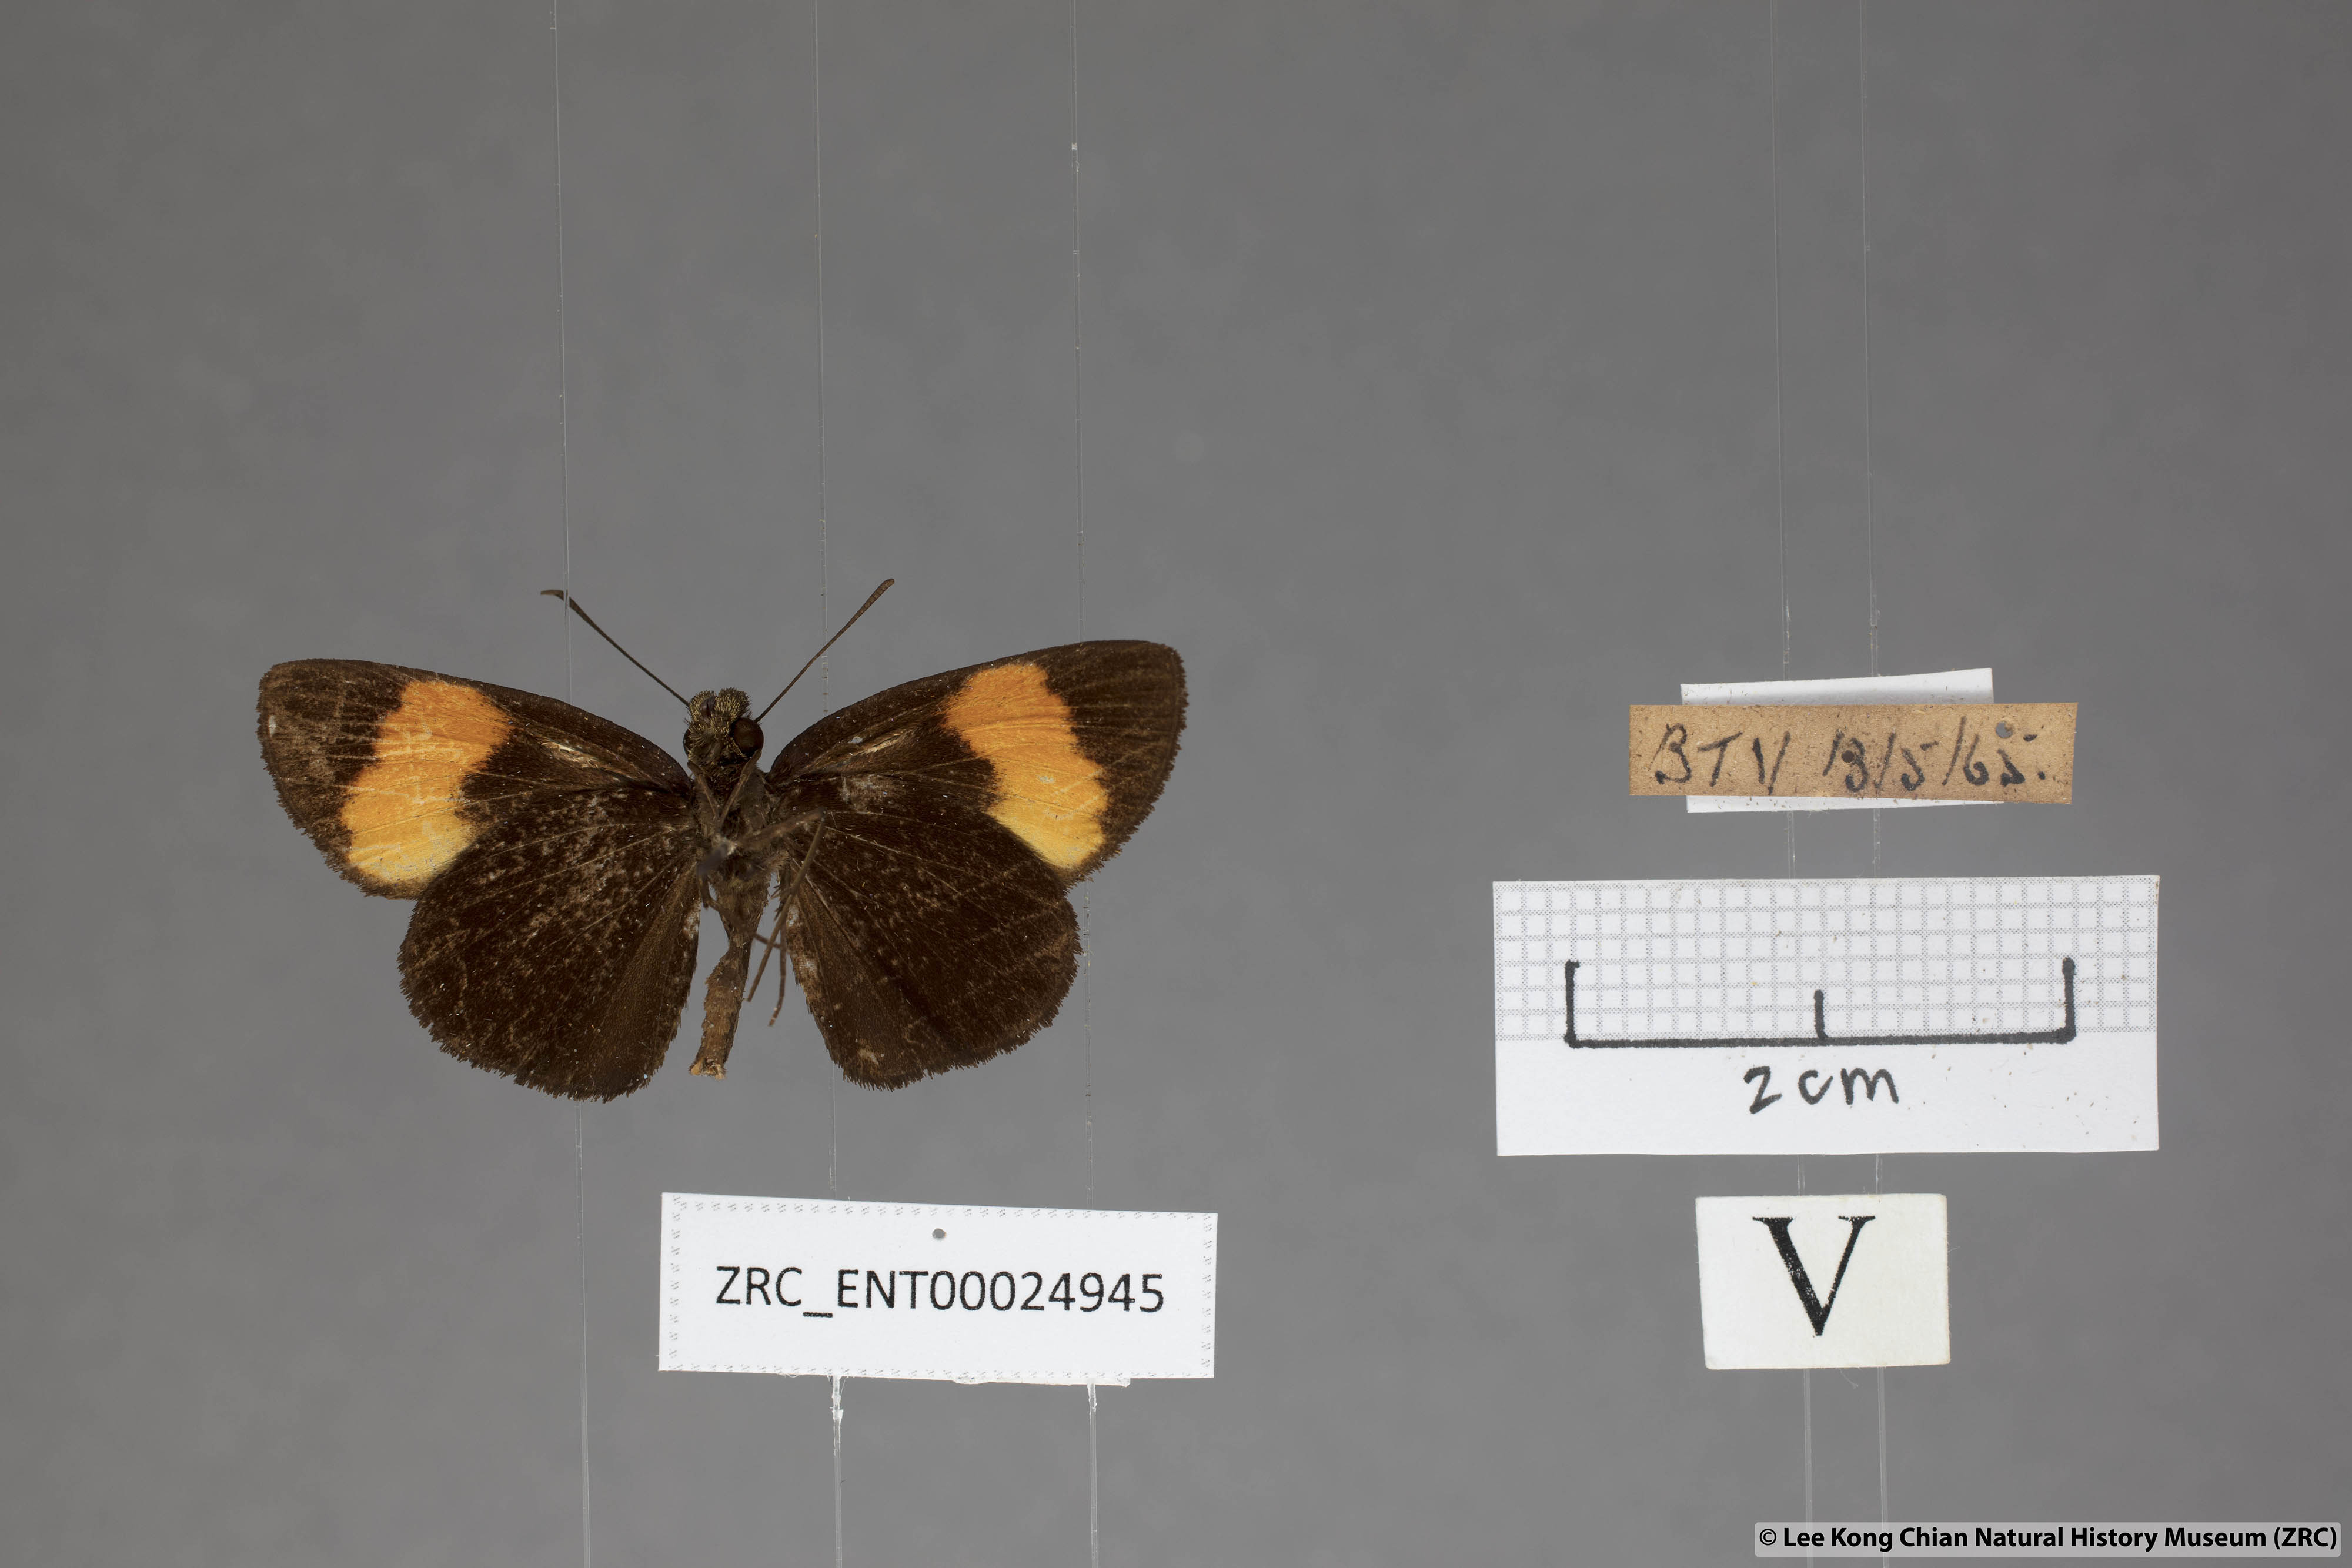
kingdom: Animalia
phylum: Arthropoda
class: Insecta
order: Lepidoptera
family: Hesperiidae
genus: Koruthaialos
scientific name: Koruthaialos sindu
